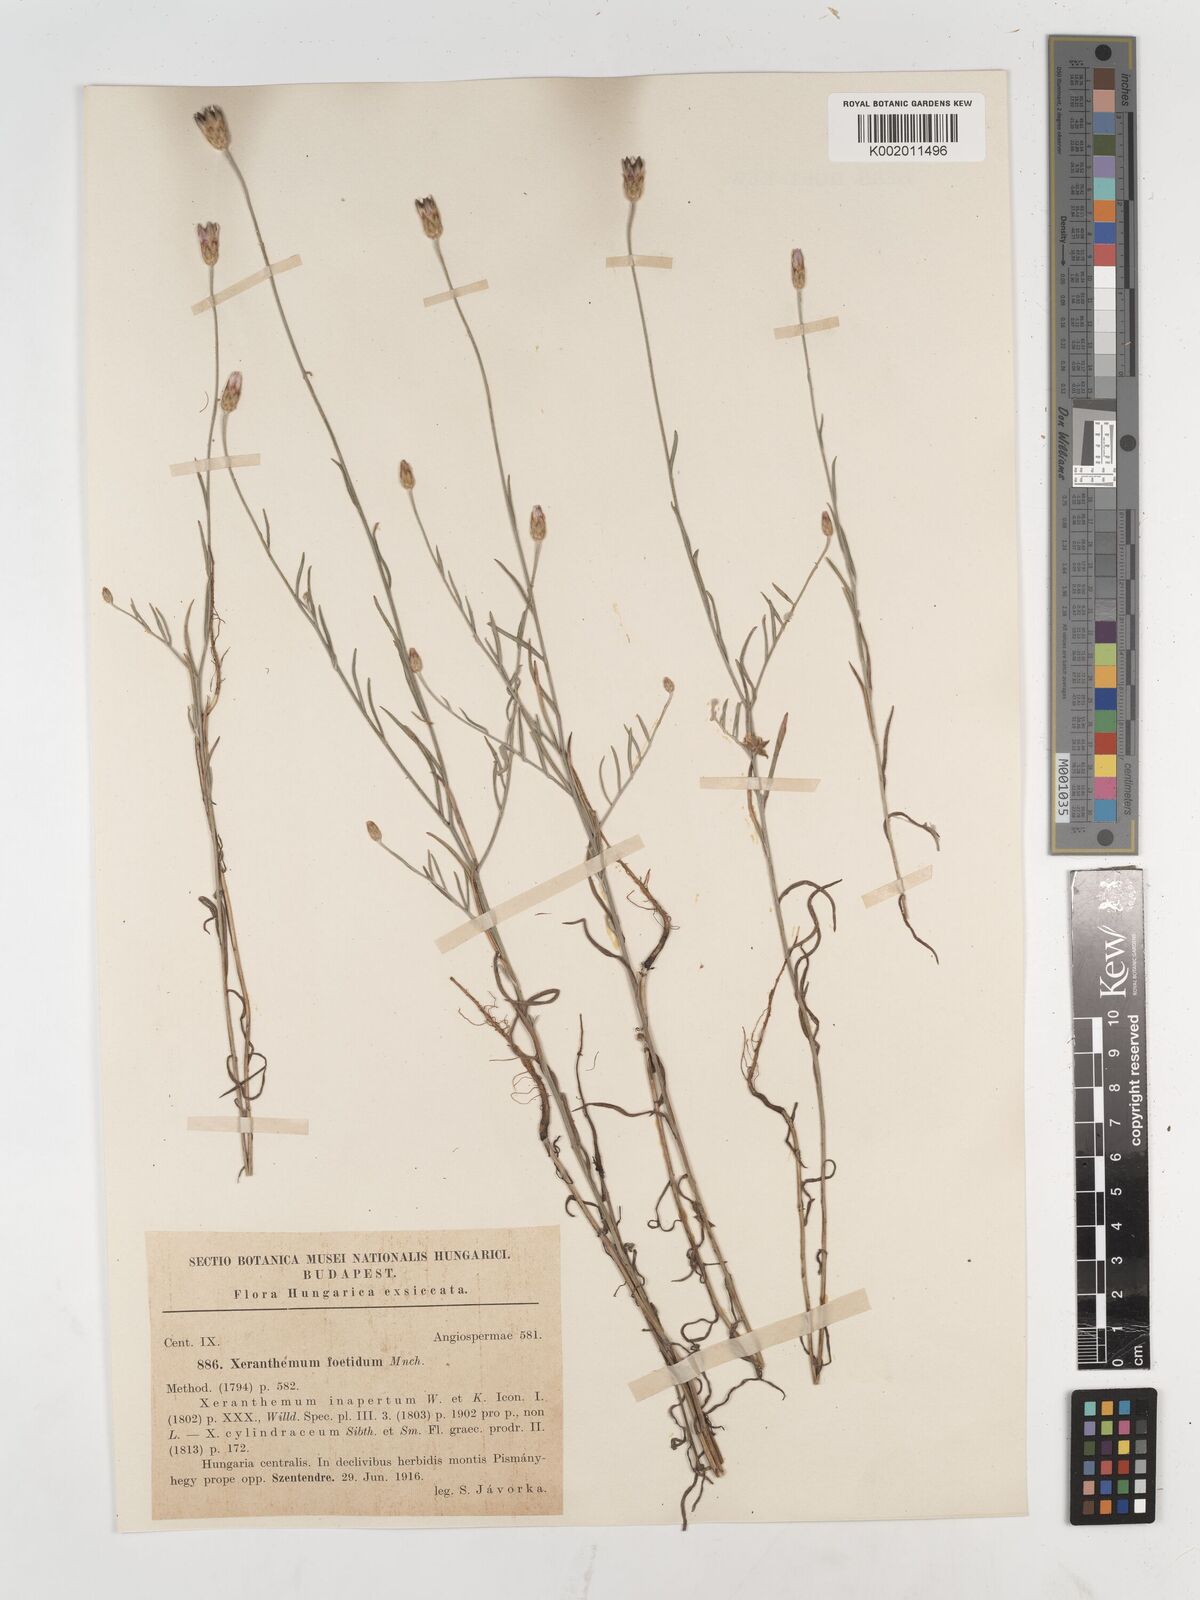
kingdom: Plantae
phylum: Tracheophyta
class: Magnoliopsida
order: Asterales
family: Asteraceae
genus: Xeranthemum
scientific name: Xeranthemum
